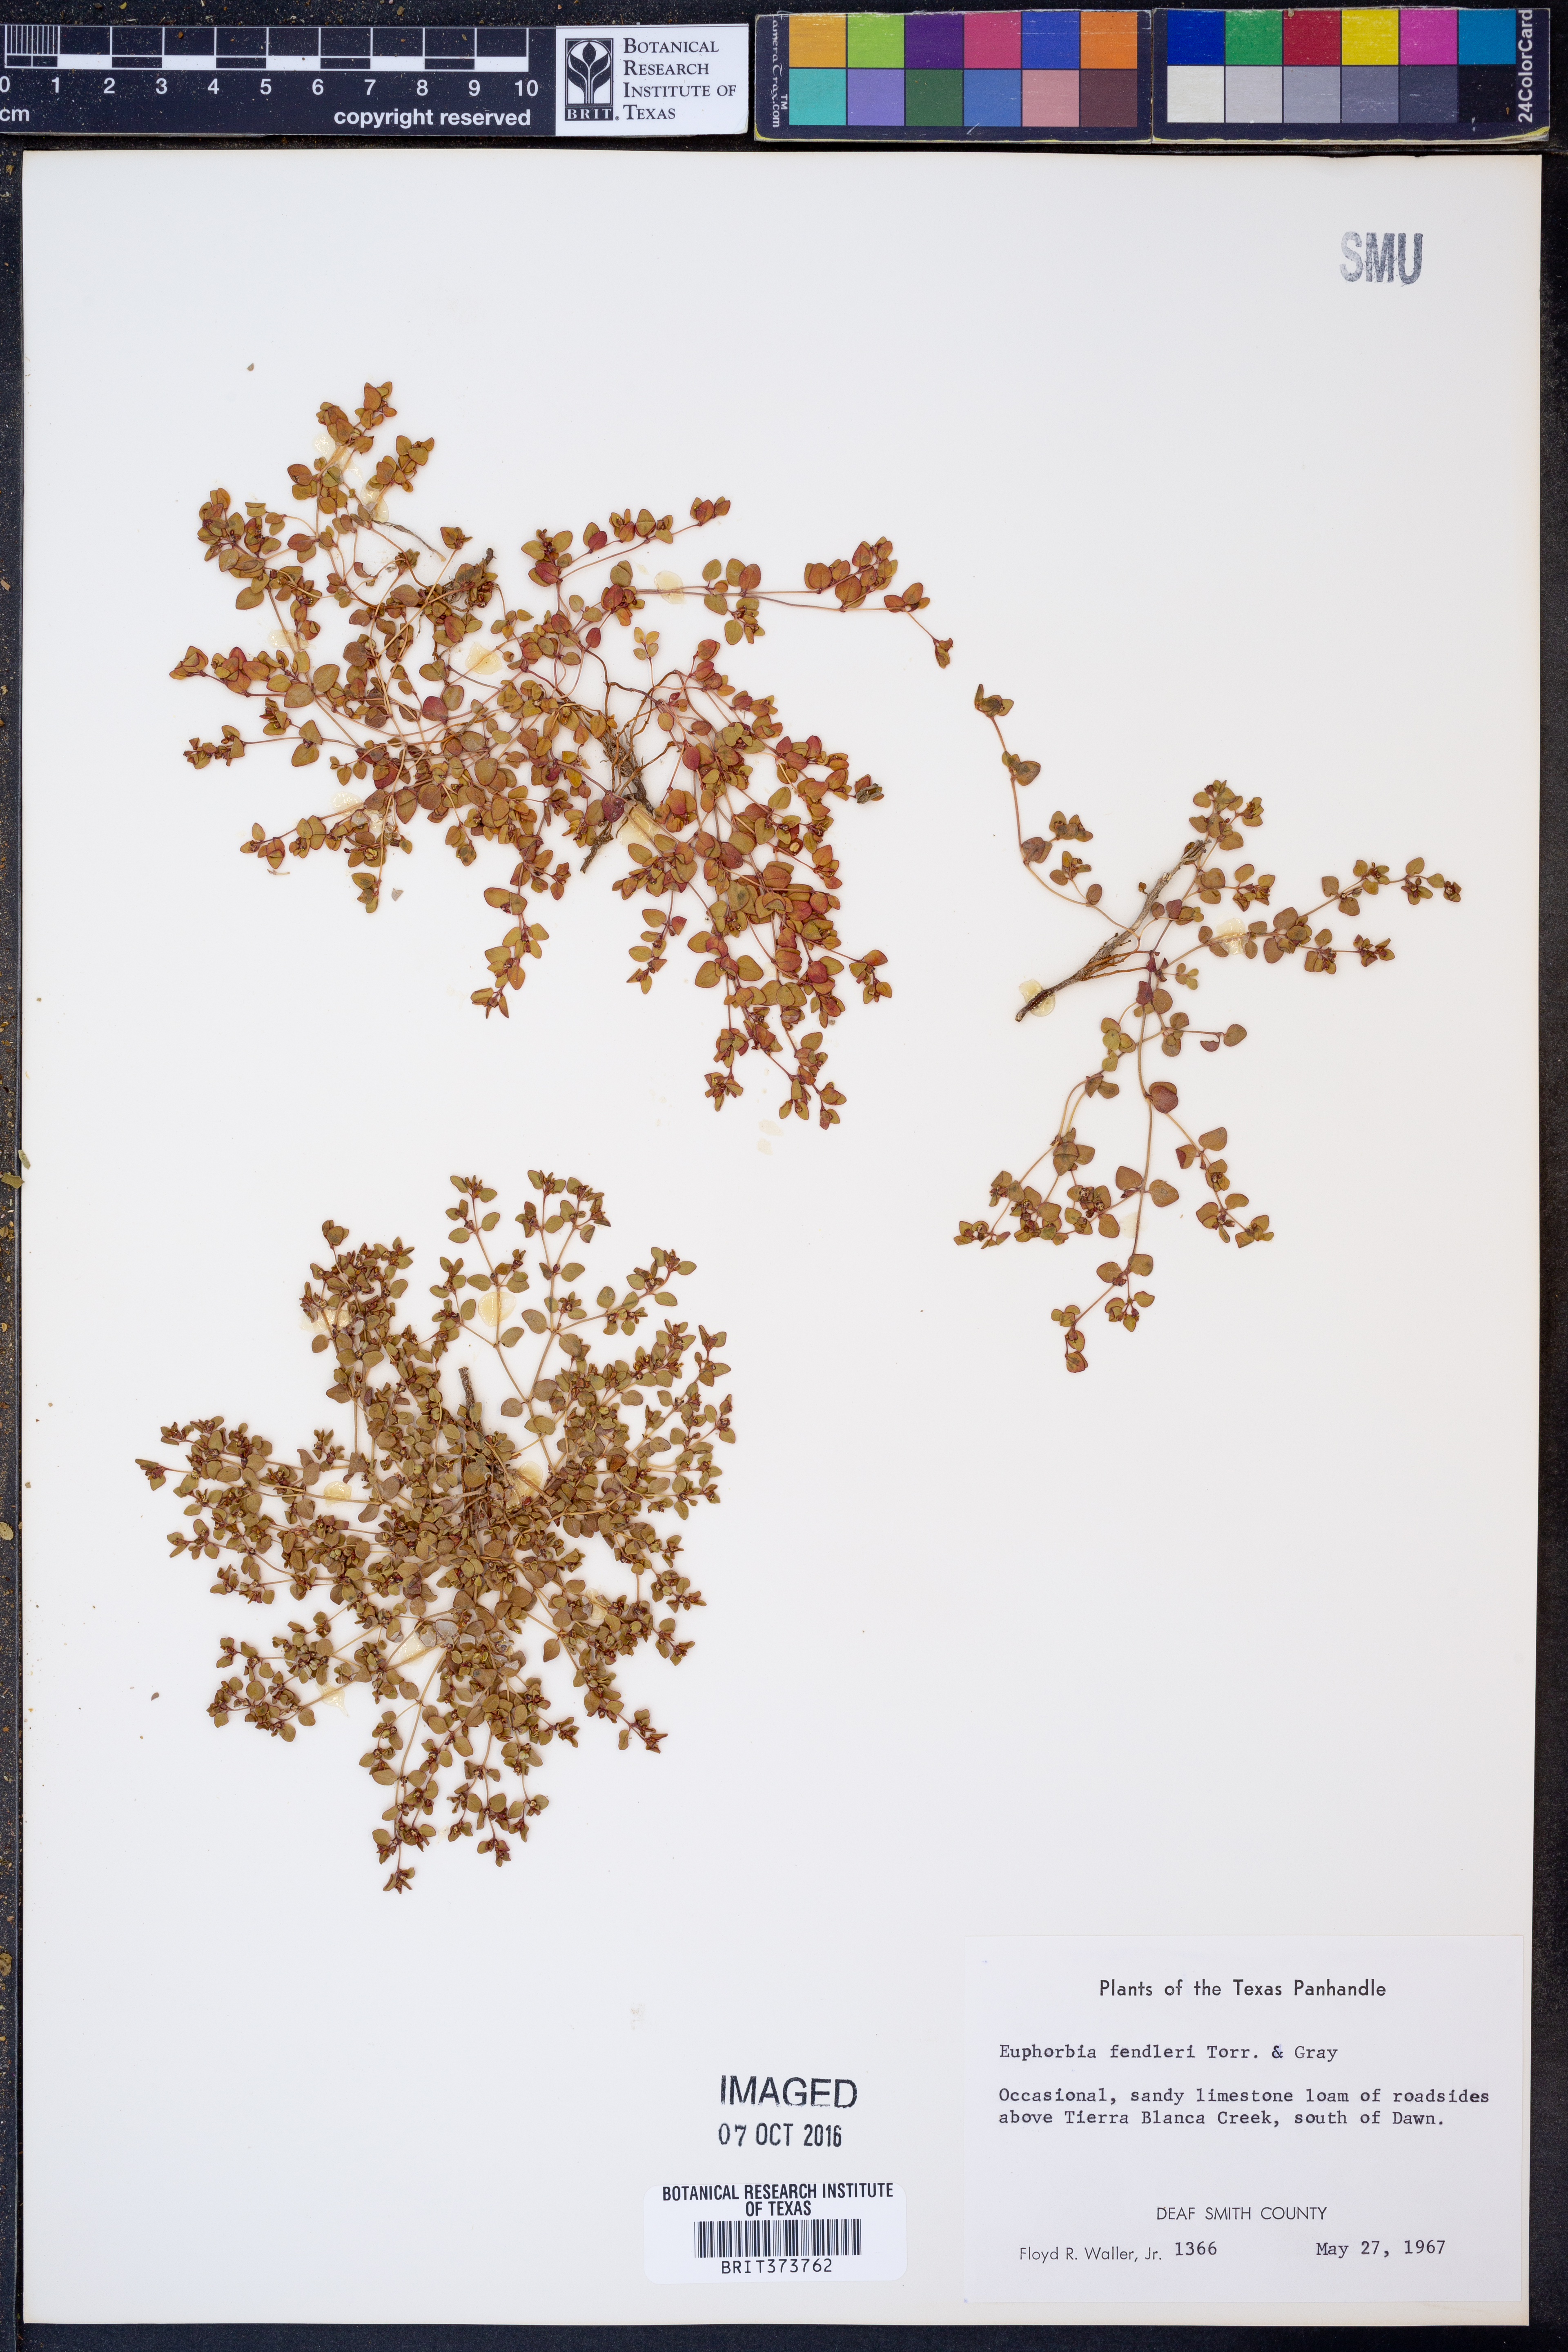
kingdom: Plantae
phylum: Tracheophyta
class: Magnoliopsida
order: Malpighiales
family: Euphorbiaceae
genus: Euphorbia
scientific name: Euphorbia fendleri
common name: Fendler's euphorbia
